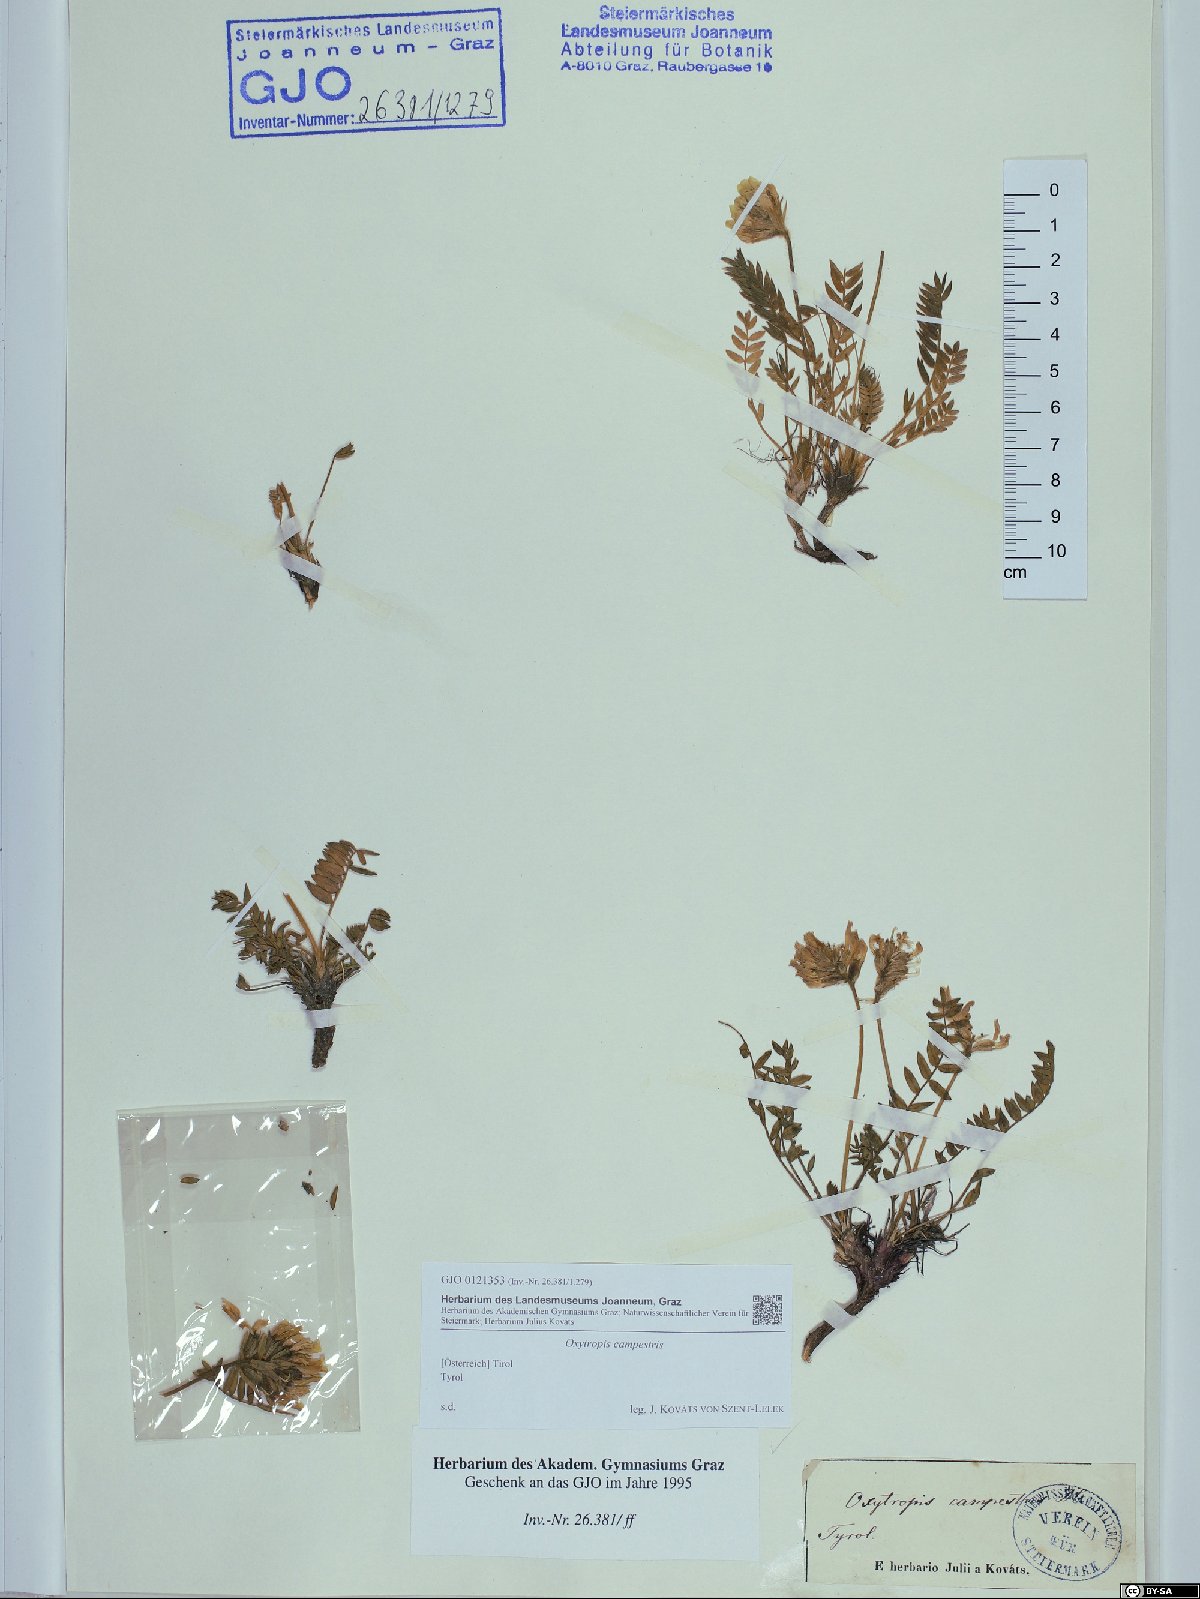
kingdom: Plantae
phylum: Tracheophyta
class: Magnoliopsida
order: Fabales
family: Fabaceae
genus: Oxytropis
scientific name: Oxytropis campestris
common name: Field locoweed
